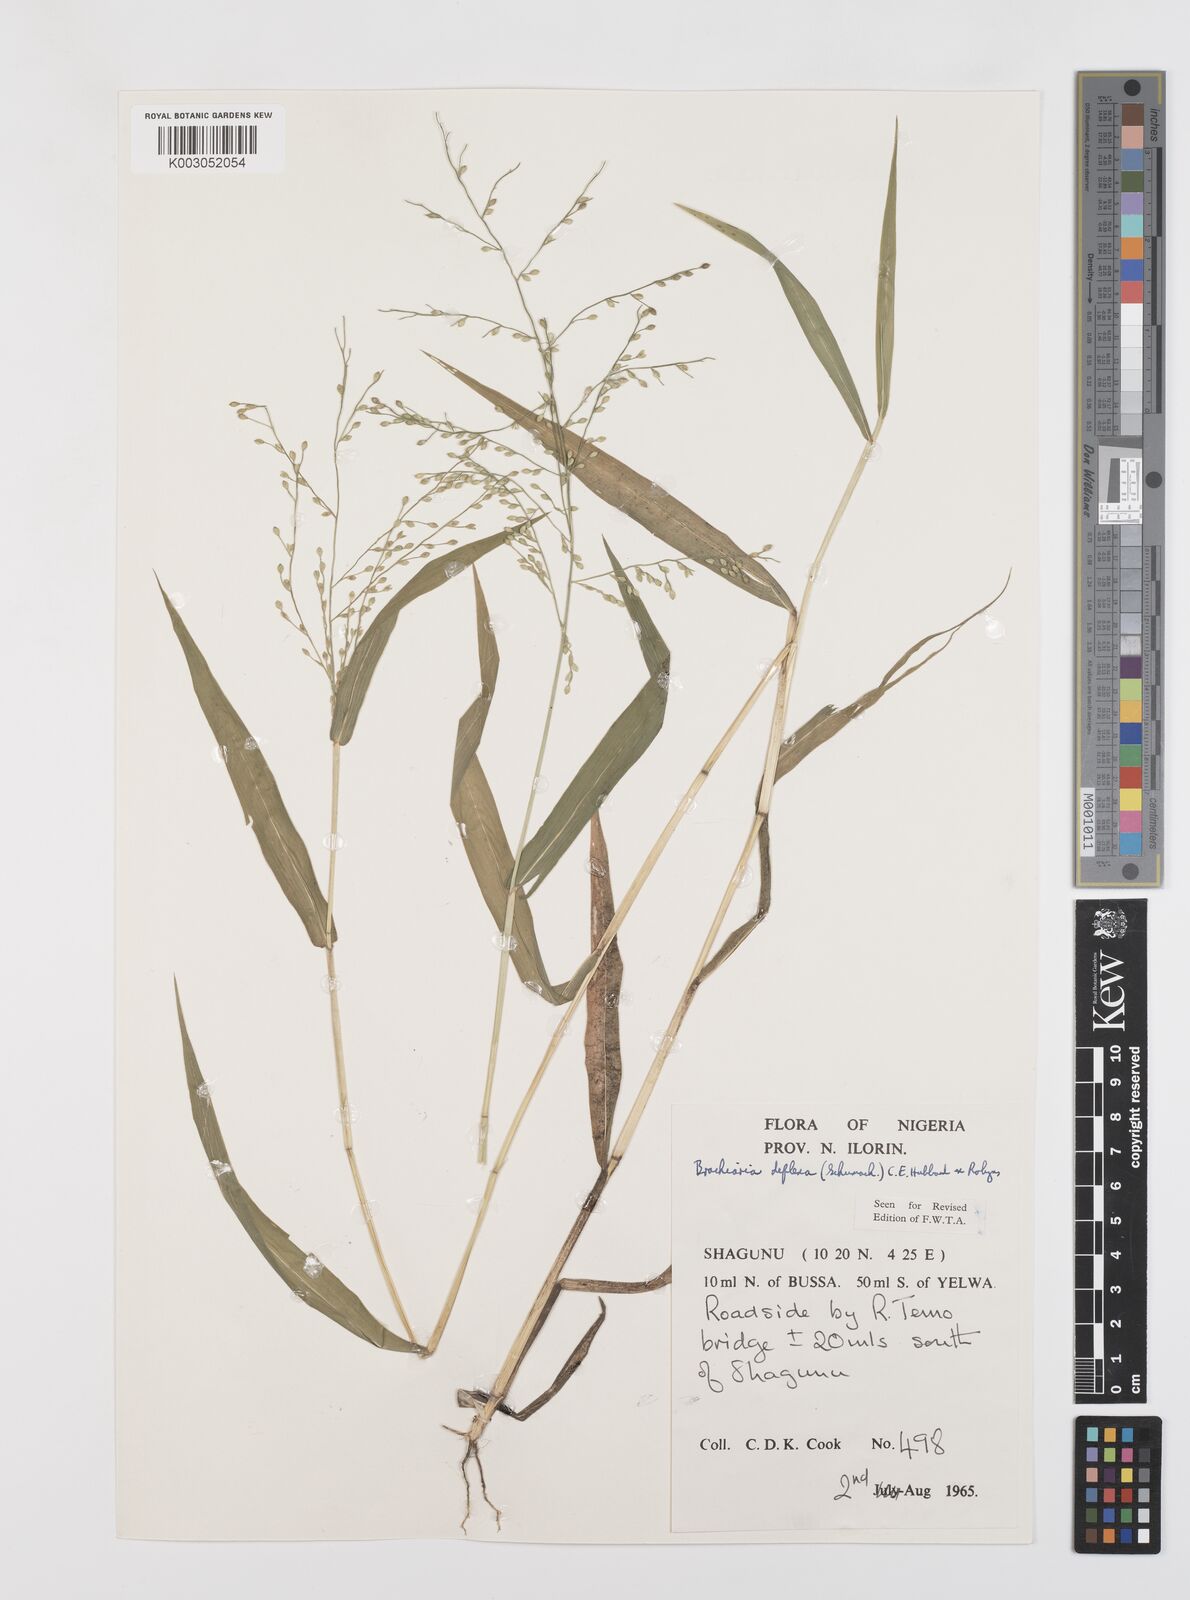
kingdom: Plantae
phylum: Tracheophyta
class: Liliopsida
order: Poales
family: Poaceae
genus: Urochloa
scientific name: Urochloa deflexa
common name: Guinea millet
